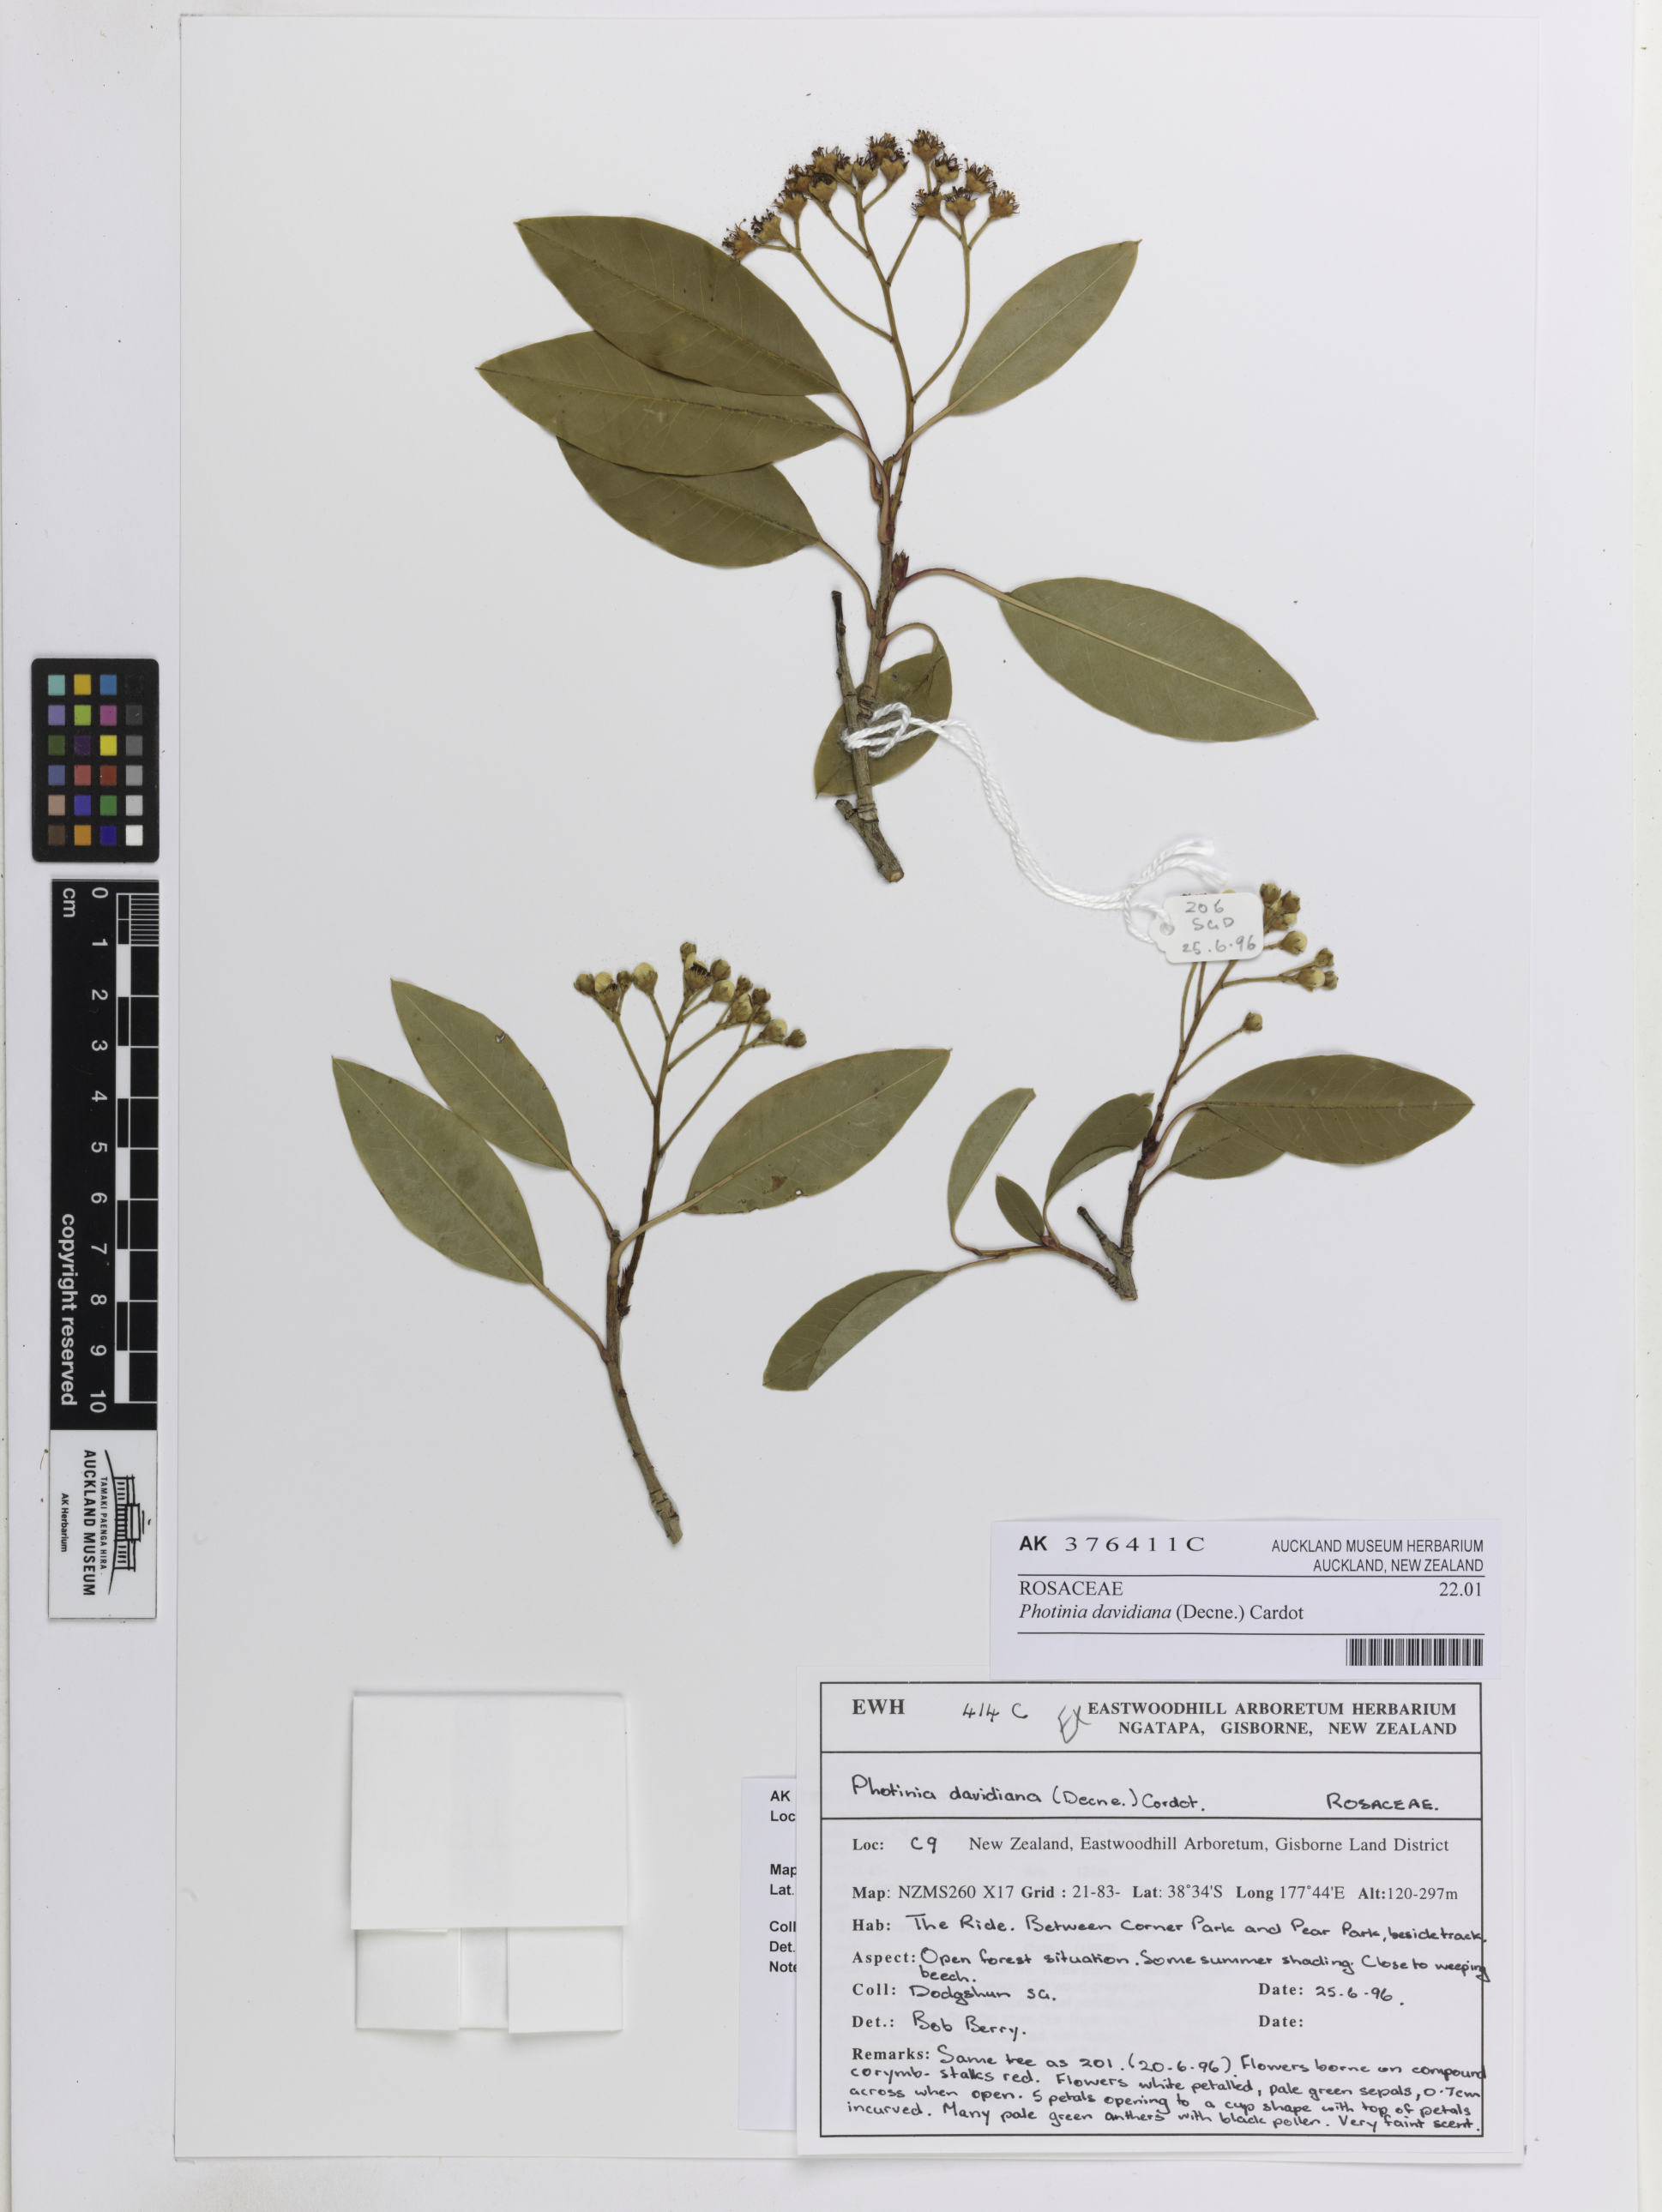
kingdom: Plantae
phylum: Tracheophyta
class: Magnoliopsida
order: Rosales
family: Rosaceae
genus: Stranvaesia
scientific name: Stranvaesia davidiana
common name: Chinese photinia
